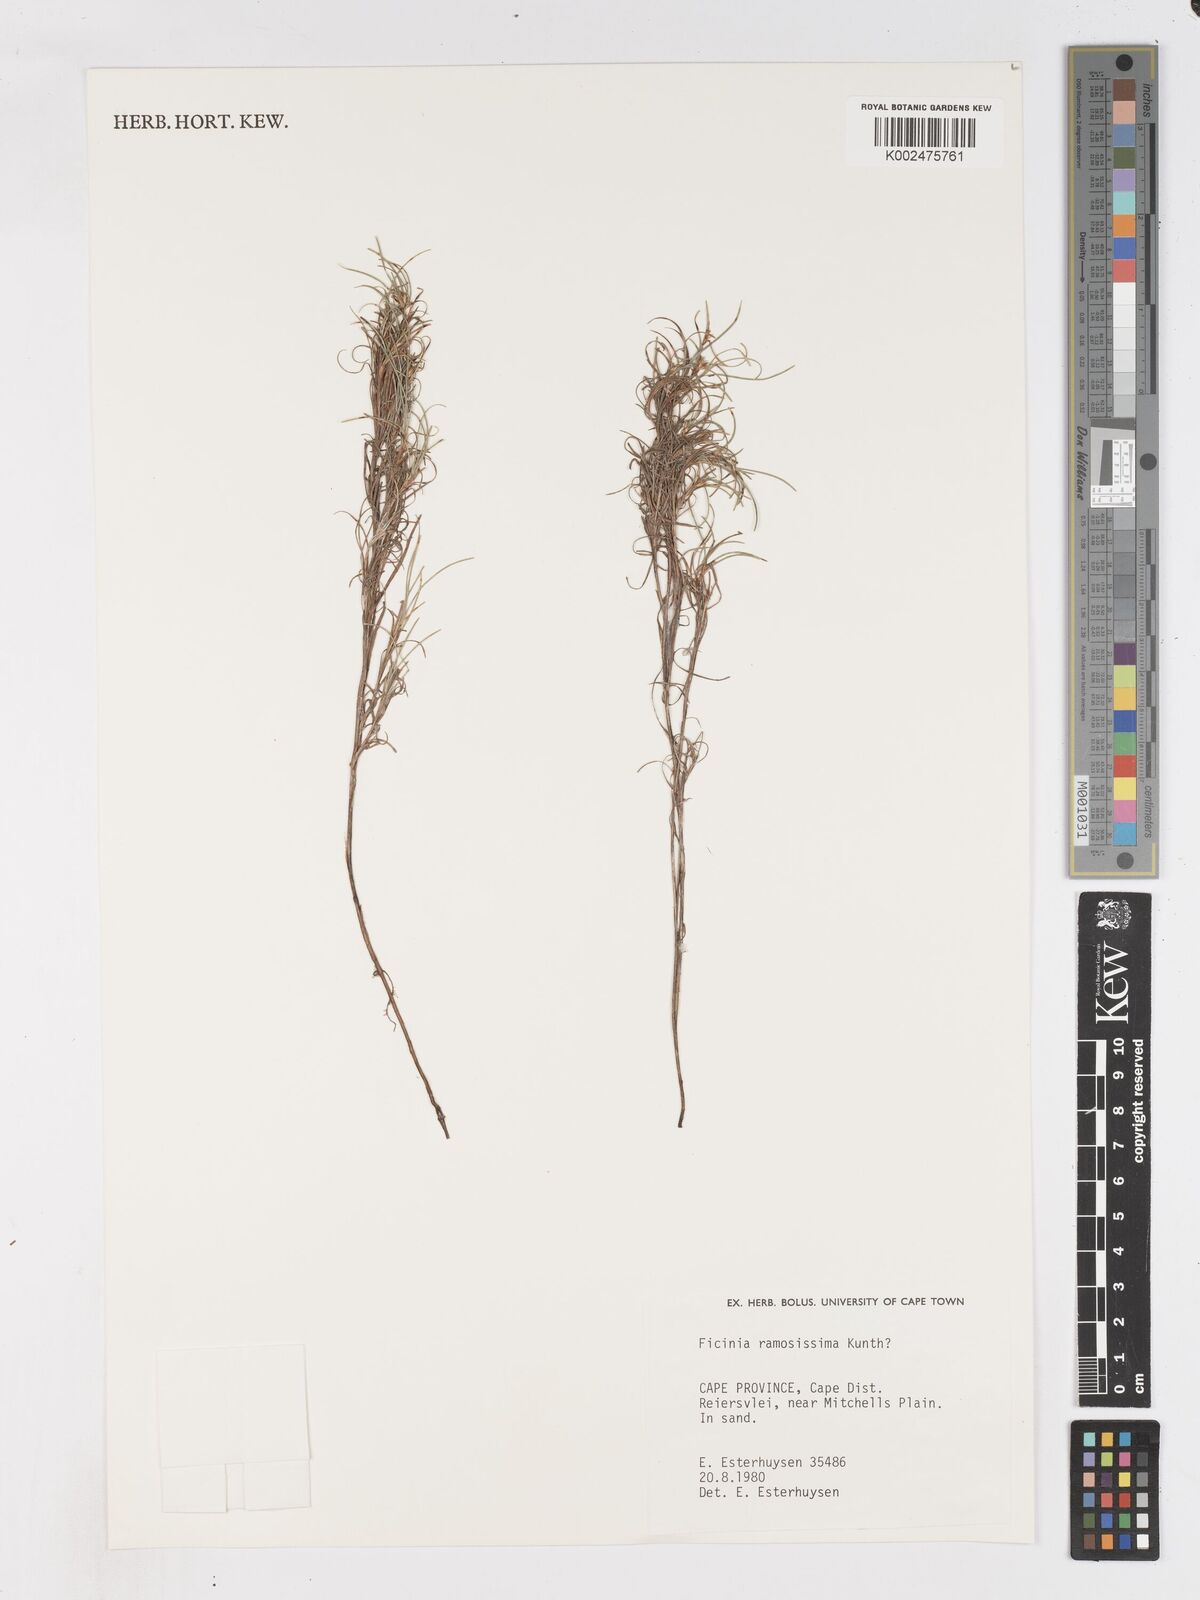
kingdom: Plantae
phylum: Tracheophyta
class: Liliopsida
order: Poales
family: Cyperaceae
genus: Ficinia
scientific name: Ficinia ramosissima
